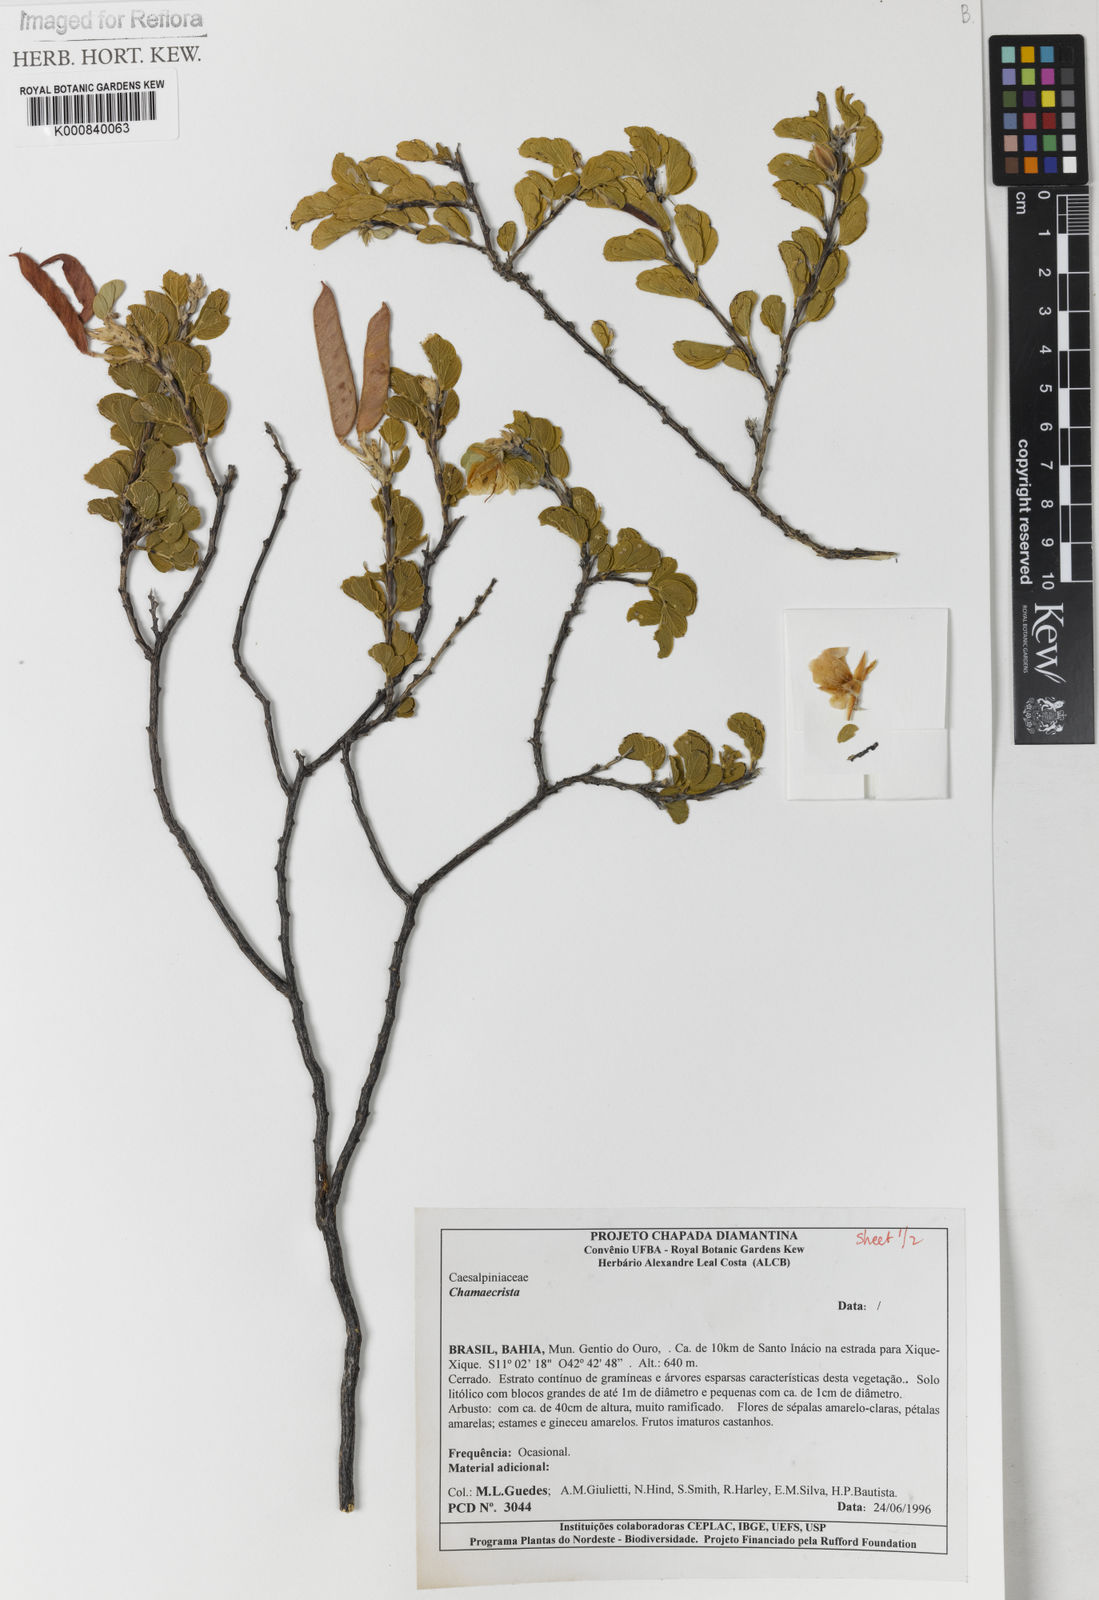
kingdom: Plantae
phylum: Tracheophyta
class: Magnoliopsida
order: Fabales
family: Fabaceae
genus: Chamaecrista
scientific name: Chamaecrista
